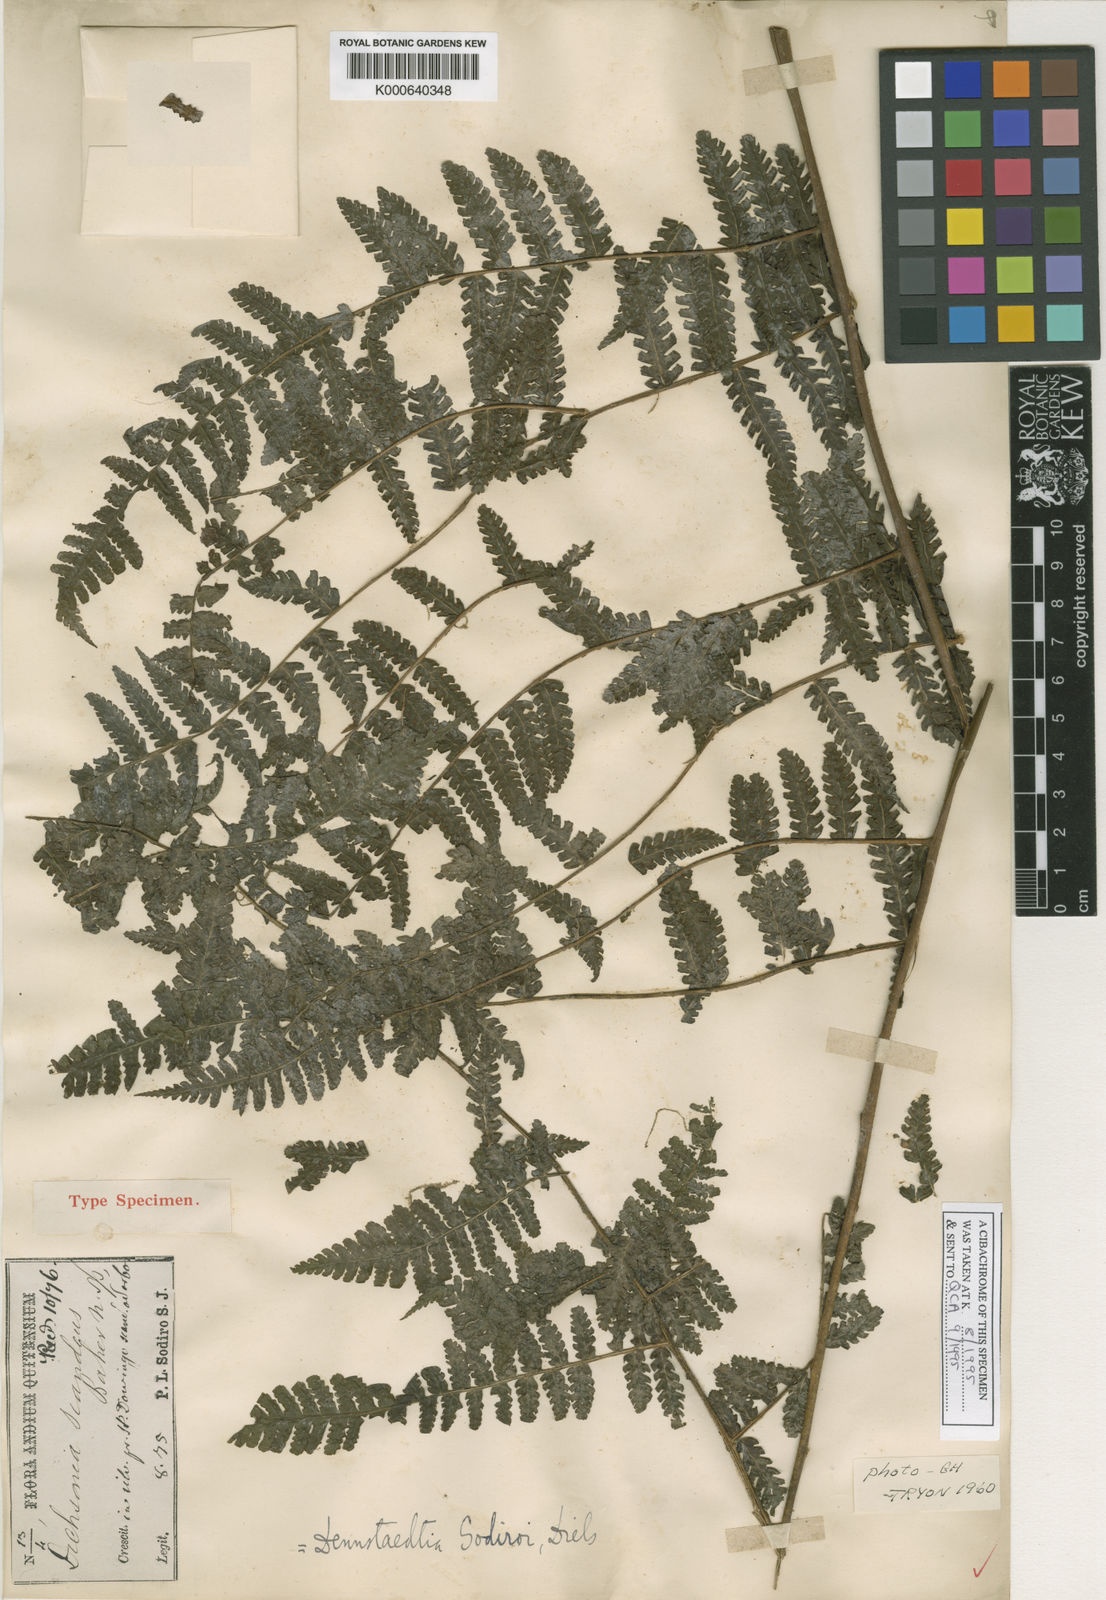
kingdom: Plantae
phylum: Tracheophyta
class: Polypodiopsida
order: Polypodiales
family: Dennstaedtiaceae
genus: Dennstaedtia
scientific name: Dennstaedtia vagans
